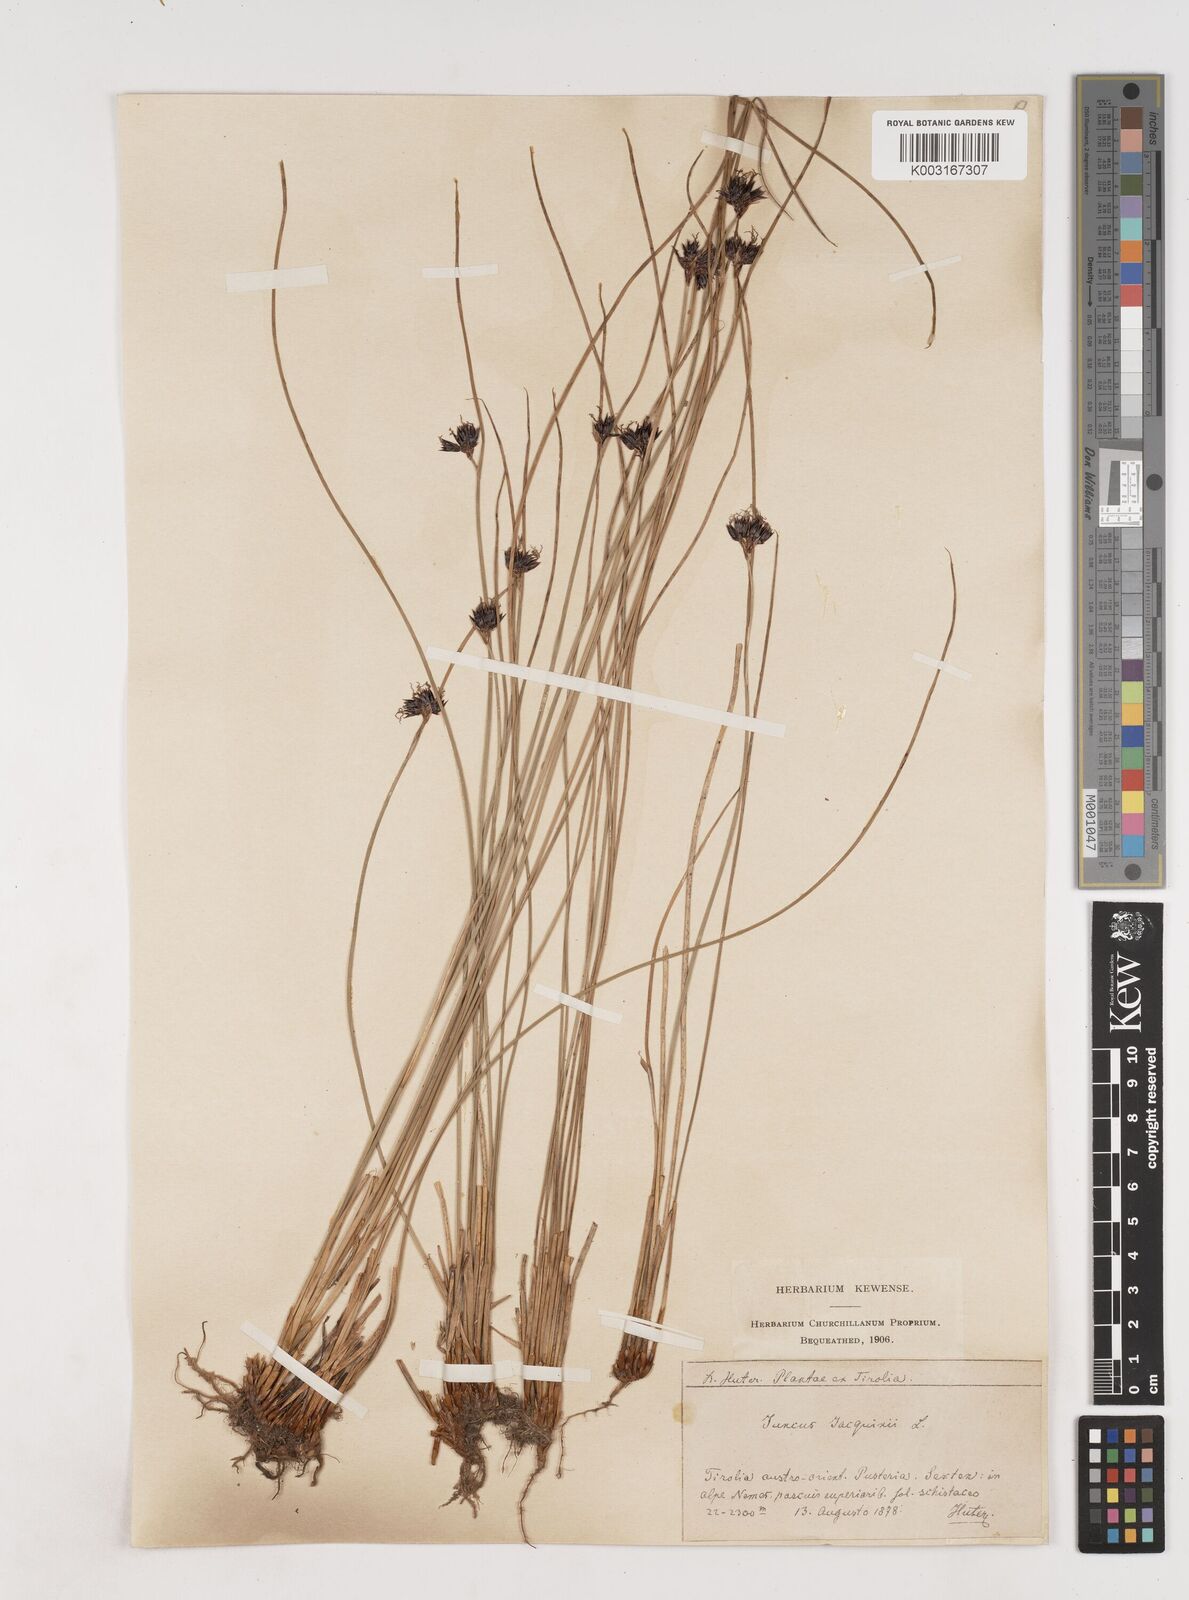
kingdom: Plantae
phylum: Tracheophyta
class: Liliopsida
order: Poales
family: Juncaceae
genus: Juncus
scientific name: Juncus jacquinii
